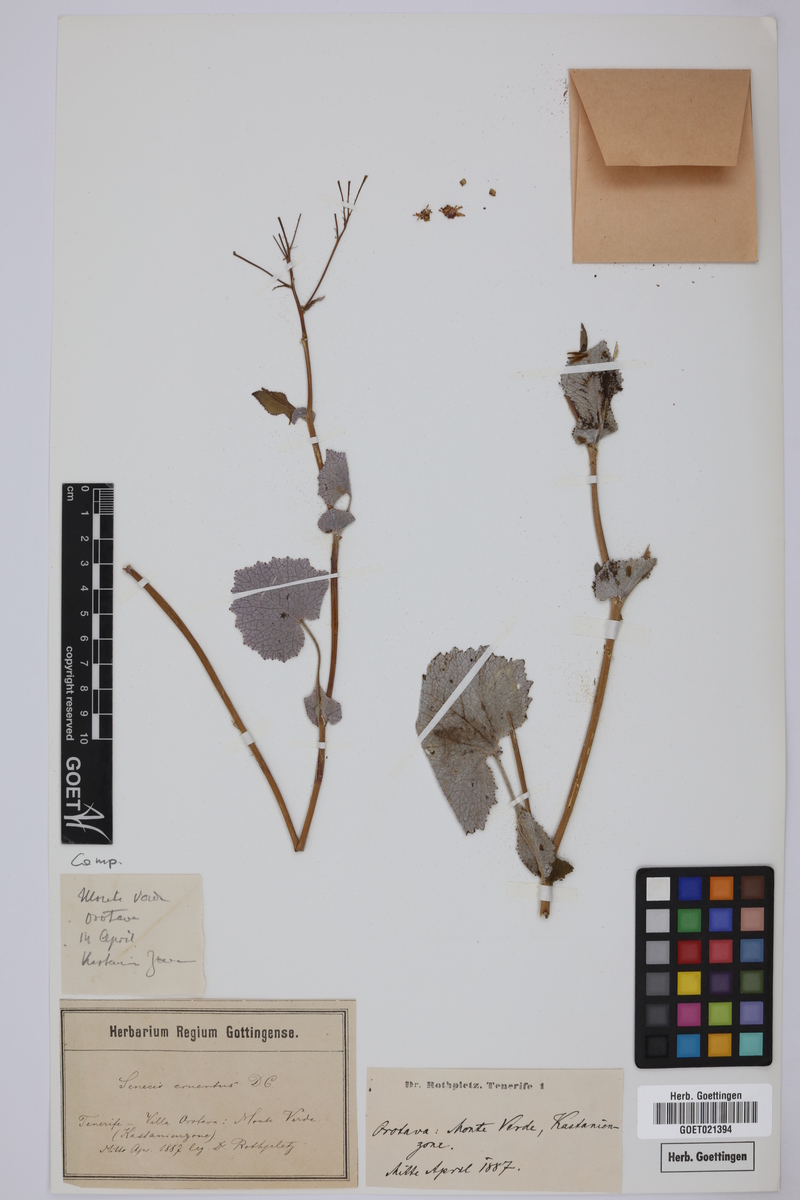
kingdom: Plantae
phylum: Tracheophyta
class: Magnoliopsida
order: Asterales
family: Asteraceae
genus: Pericallis
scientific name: Pericallis echinata
